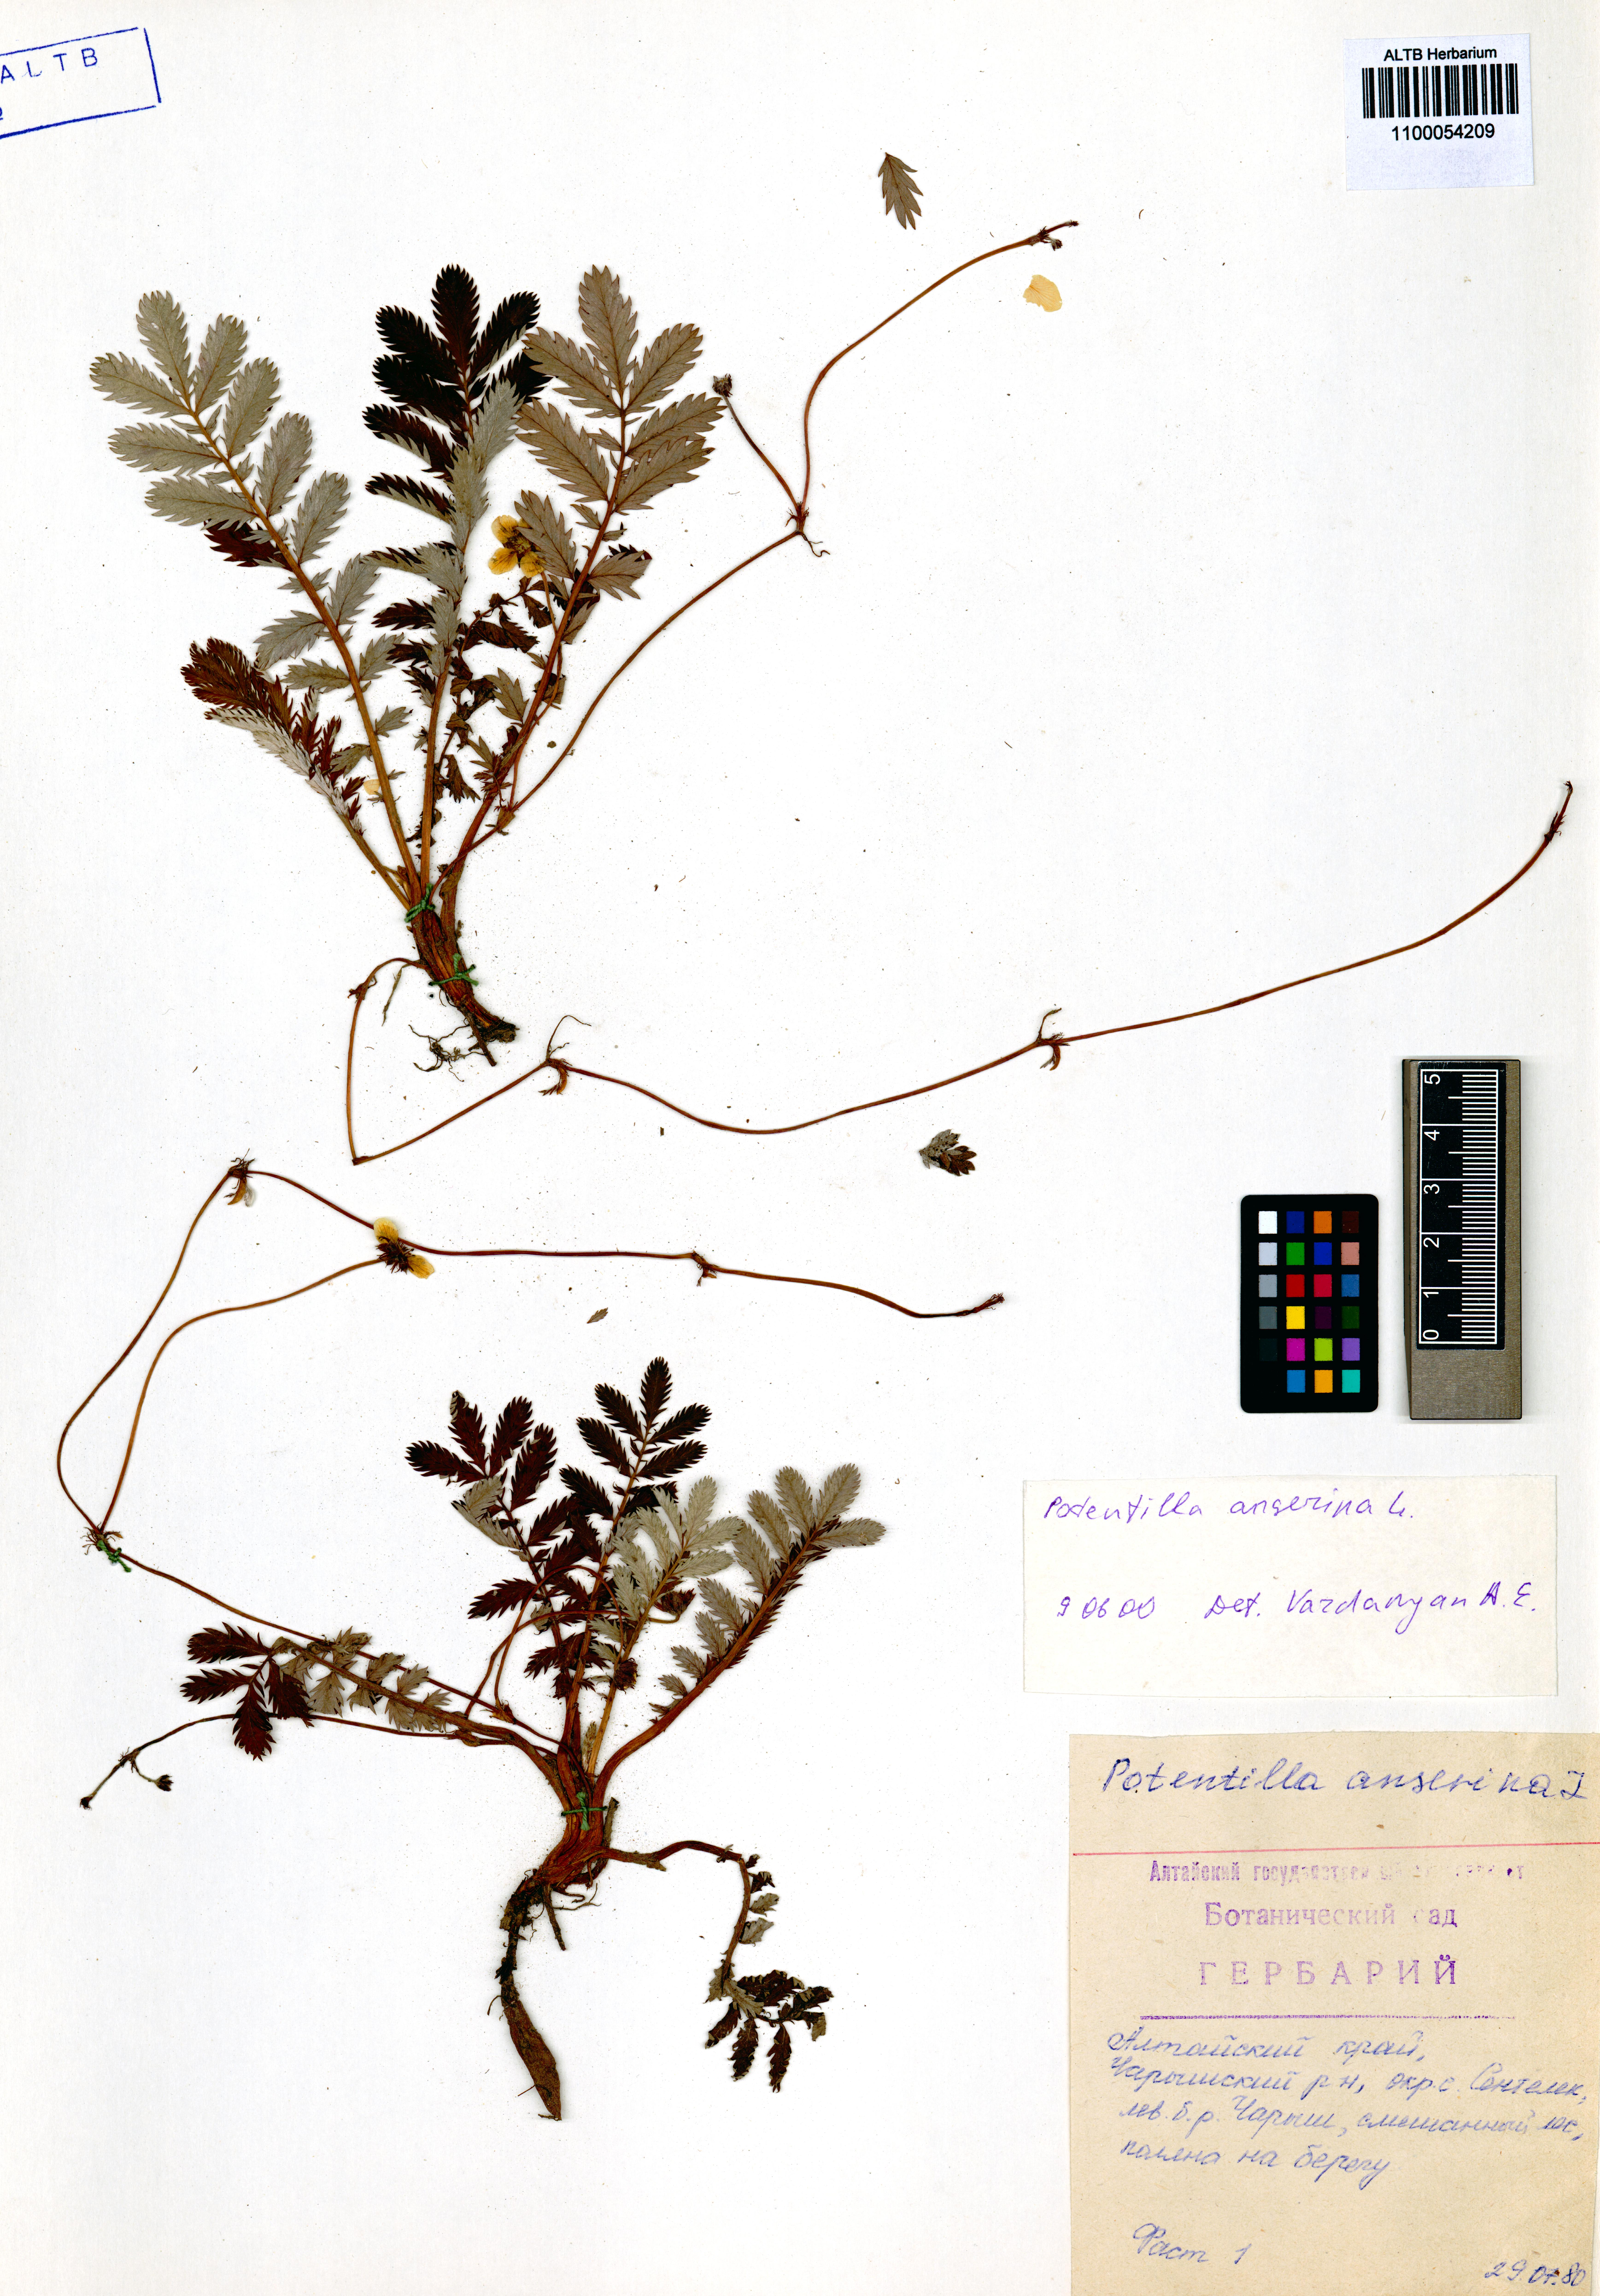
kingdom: Plantae
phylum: Tracheophyta
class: Magnoliopsida
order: Rosales
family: Rosaceae
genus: Argentina
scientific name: Argentina anserina
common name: Common silverweed
